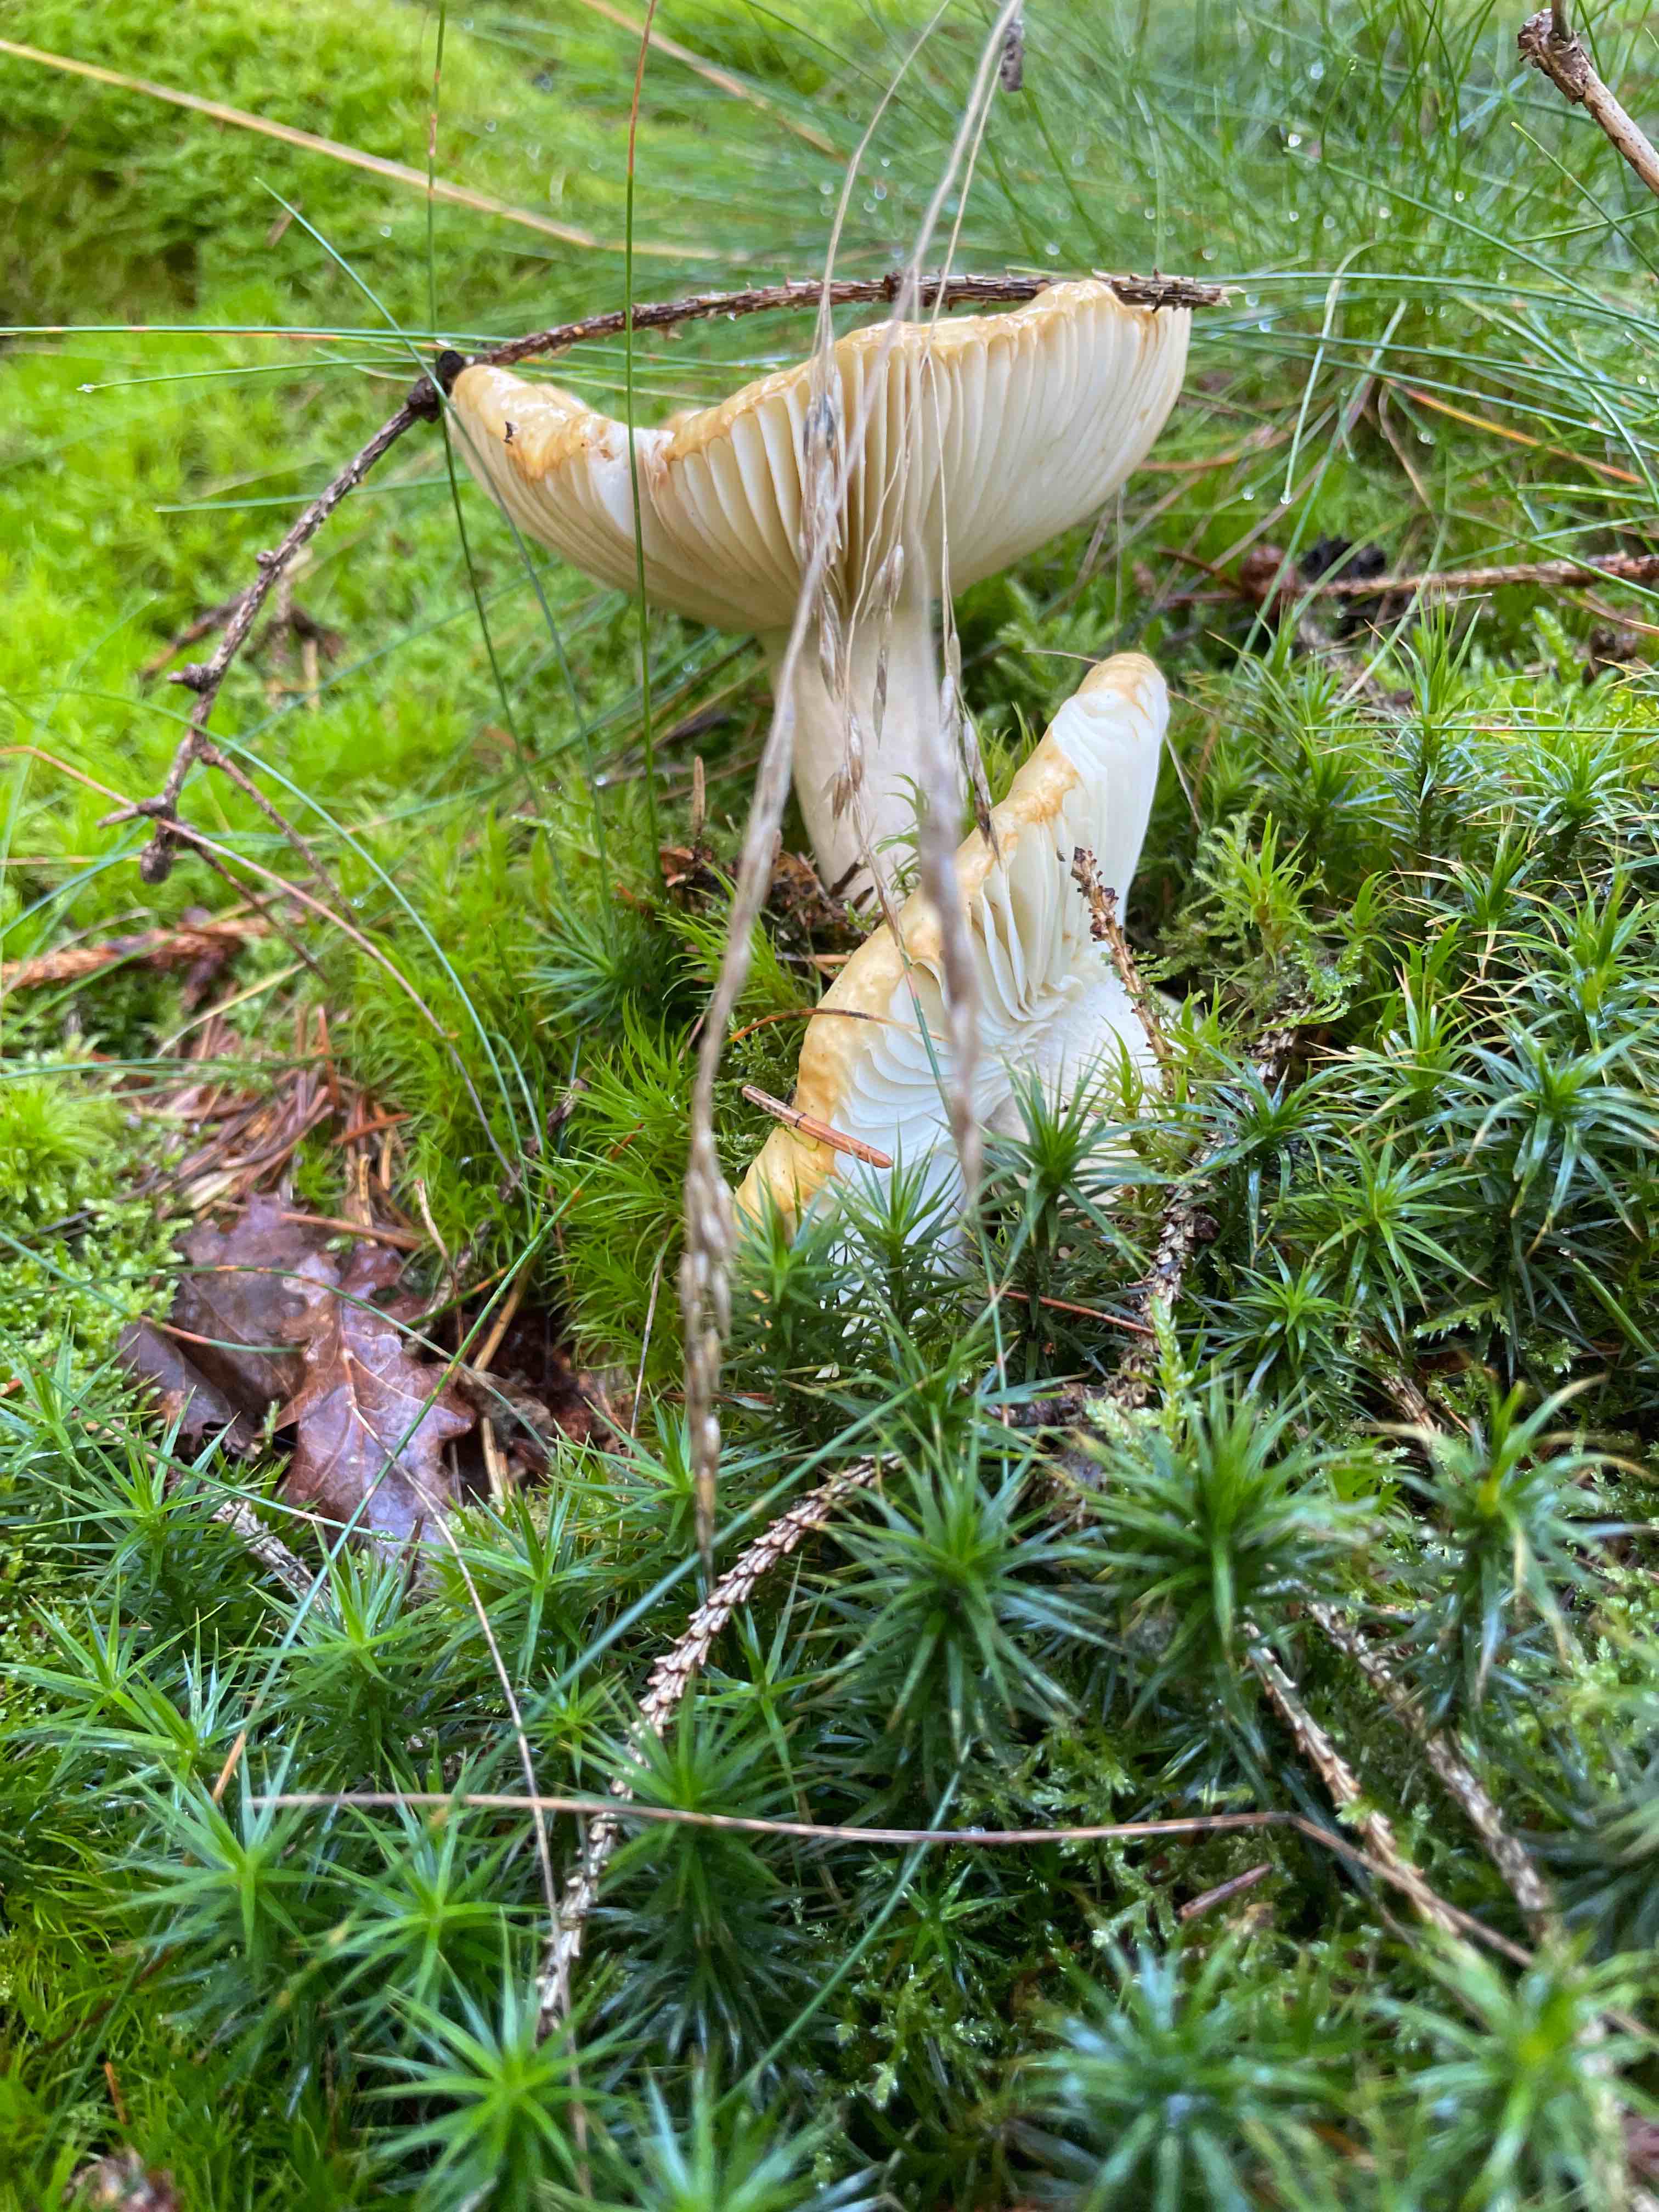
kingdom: Fungi
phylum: Basidiomycota
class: Agaricomycetes
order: Russulales
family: Russulaceae
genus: Russula
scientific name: Russula ochroleuca
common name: okkergul skørhat
